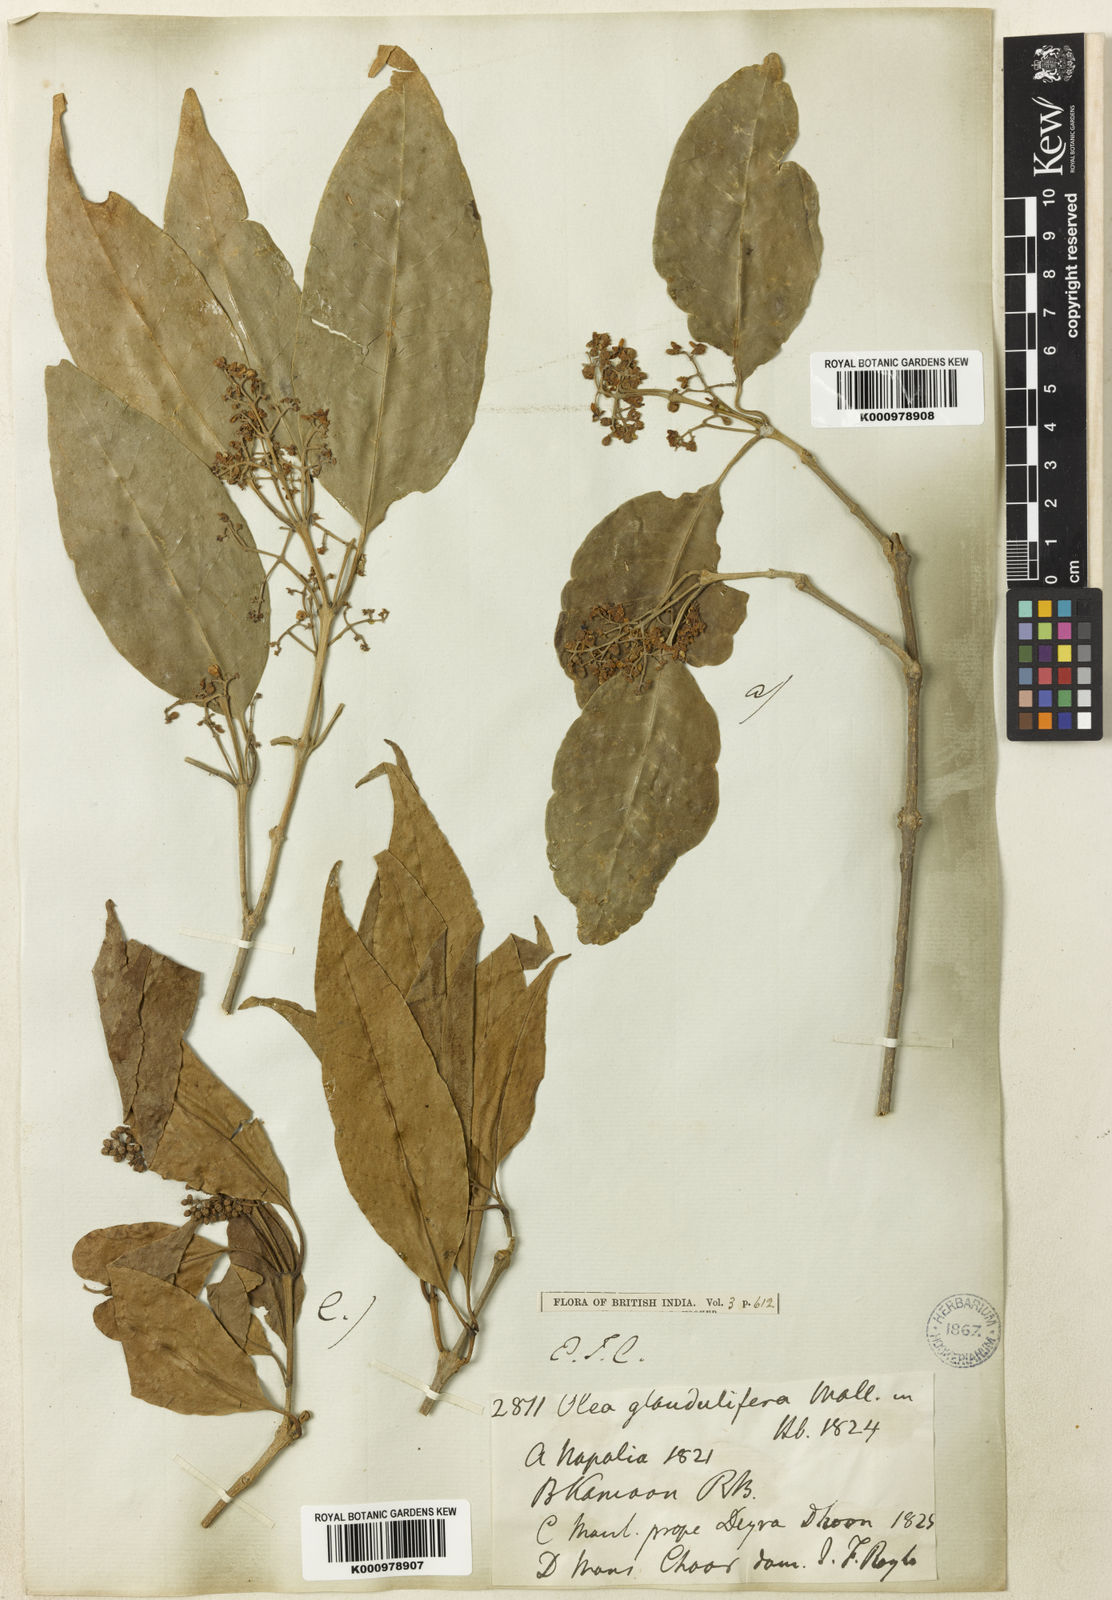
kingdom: Plantae
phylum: Tracheophyta
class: Magnoliopsida
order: Lamiales
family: Oleaceae
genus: Olea
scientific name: Olea
